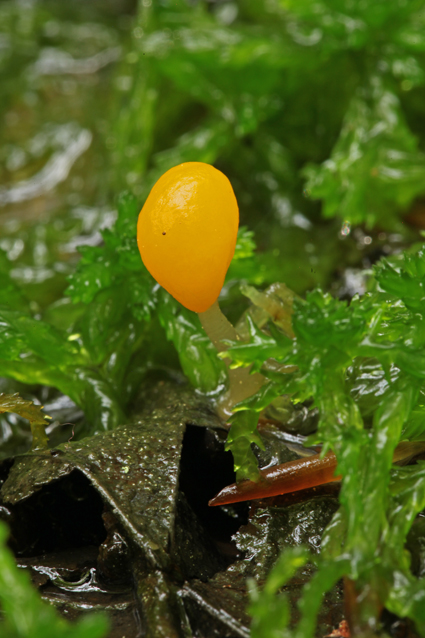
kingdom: Fungi
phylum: Ascomycota
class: Leotiomycetes
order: Helotiales
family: Cenangiaceae
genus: Mitrula
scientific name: Mitrula paludosa
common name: gul nøkketunge
